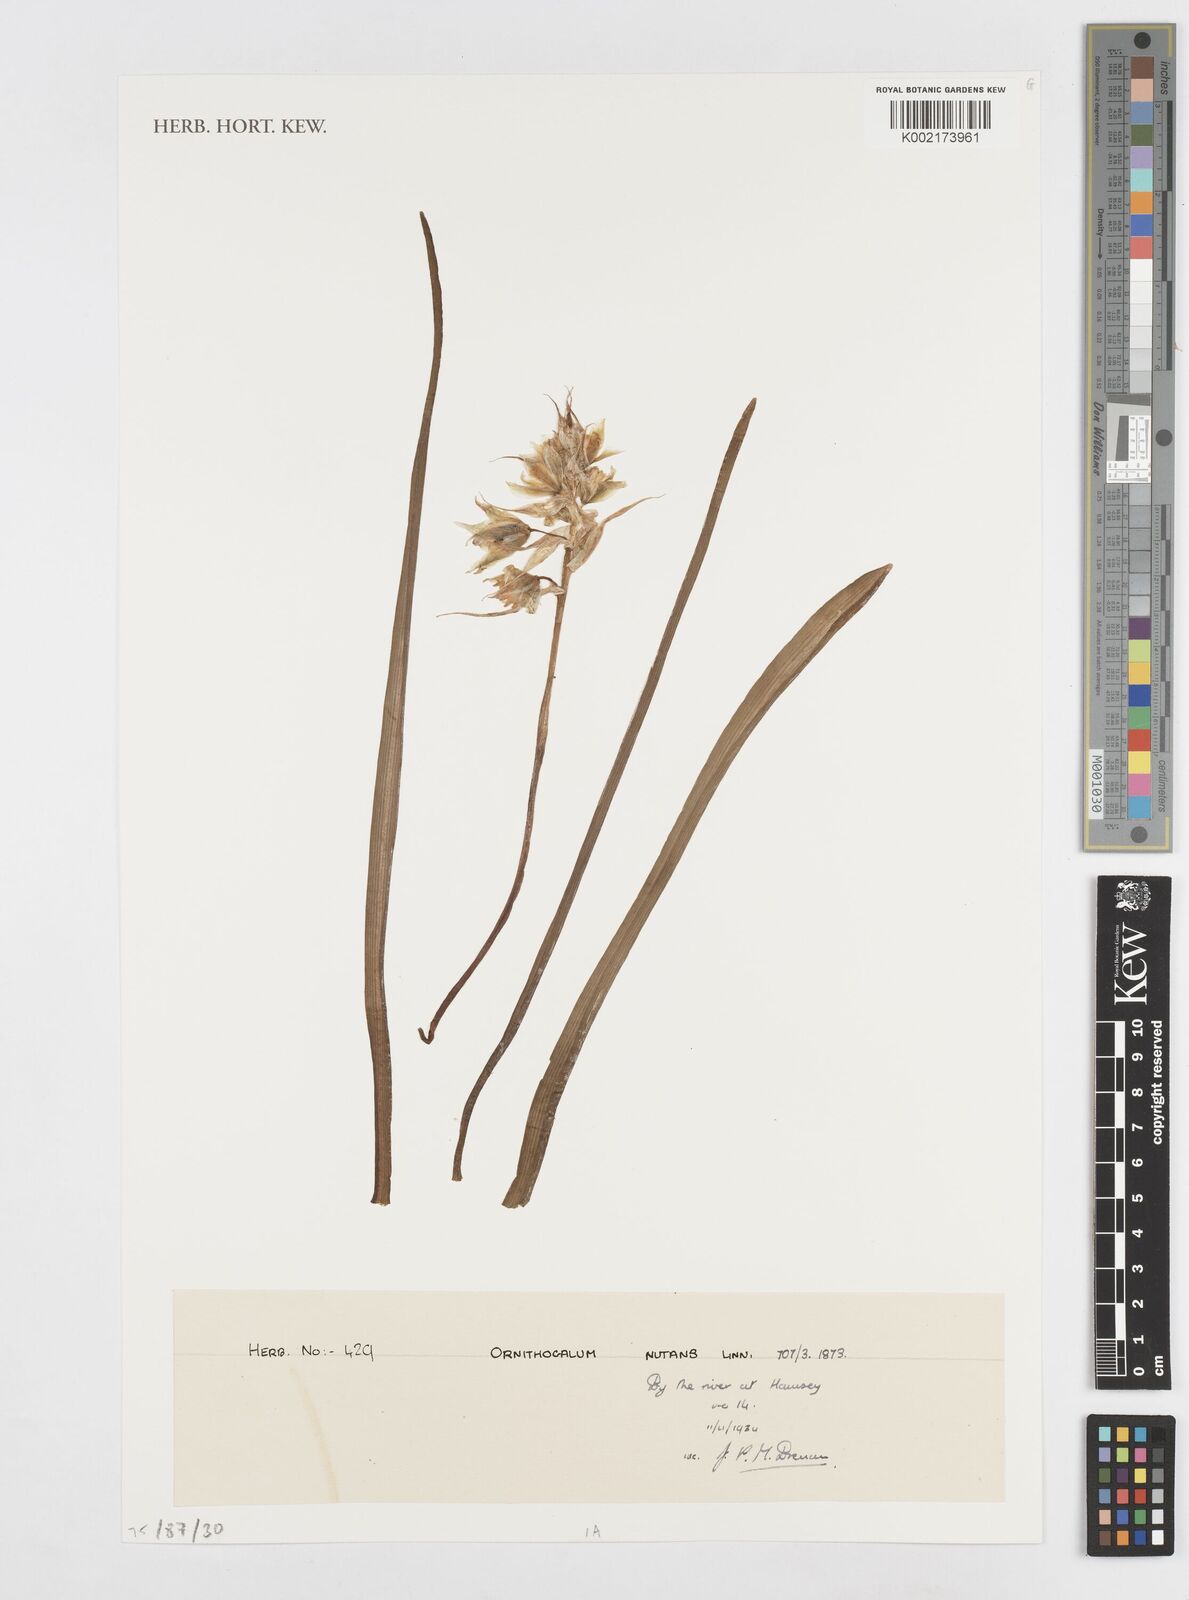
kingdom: Plantae
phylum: Tracheophyta
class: Liliopsida
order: Asparagales
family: Asparagaceae
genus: Ornithogalum
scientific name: Ornithogalum nutans
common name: Drooping star-of-bethlehem
